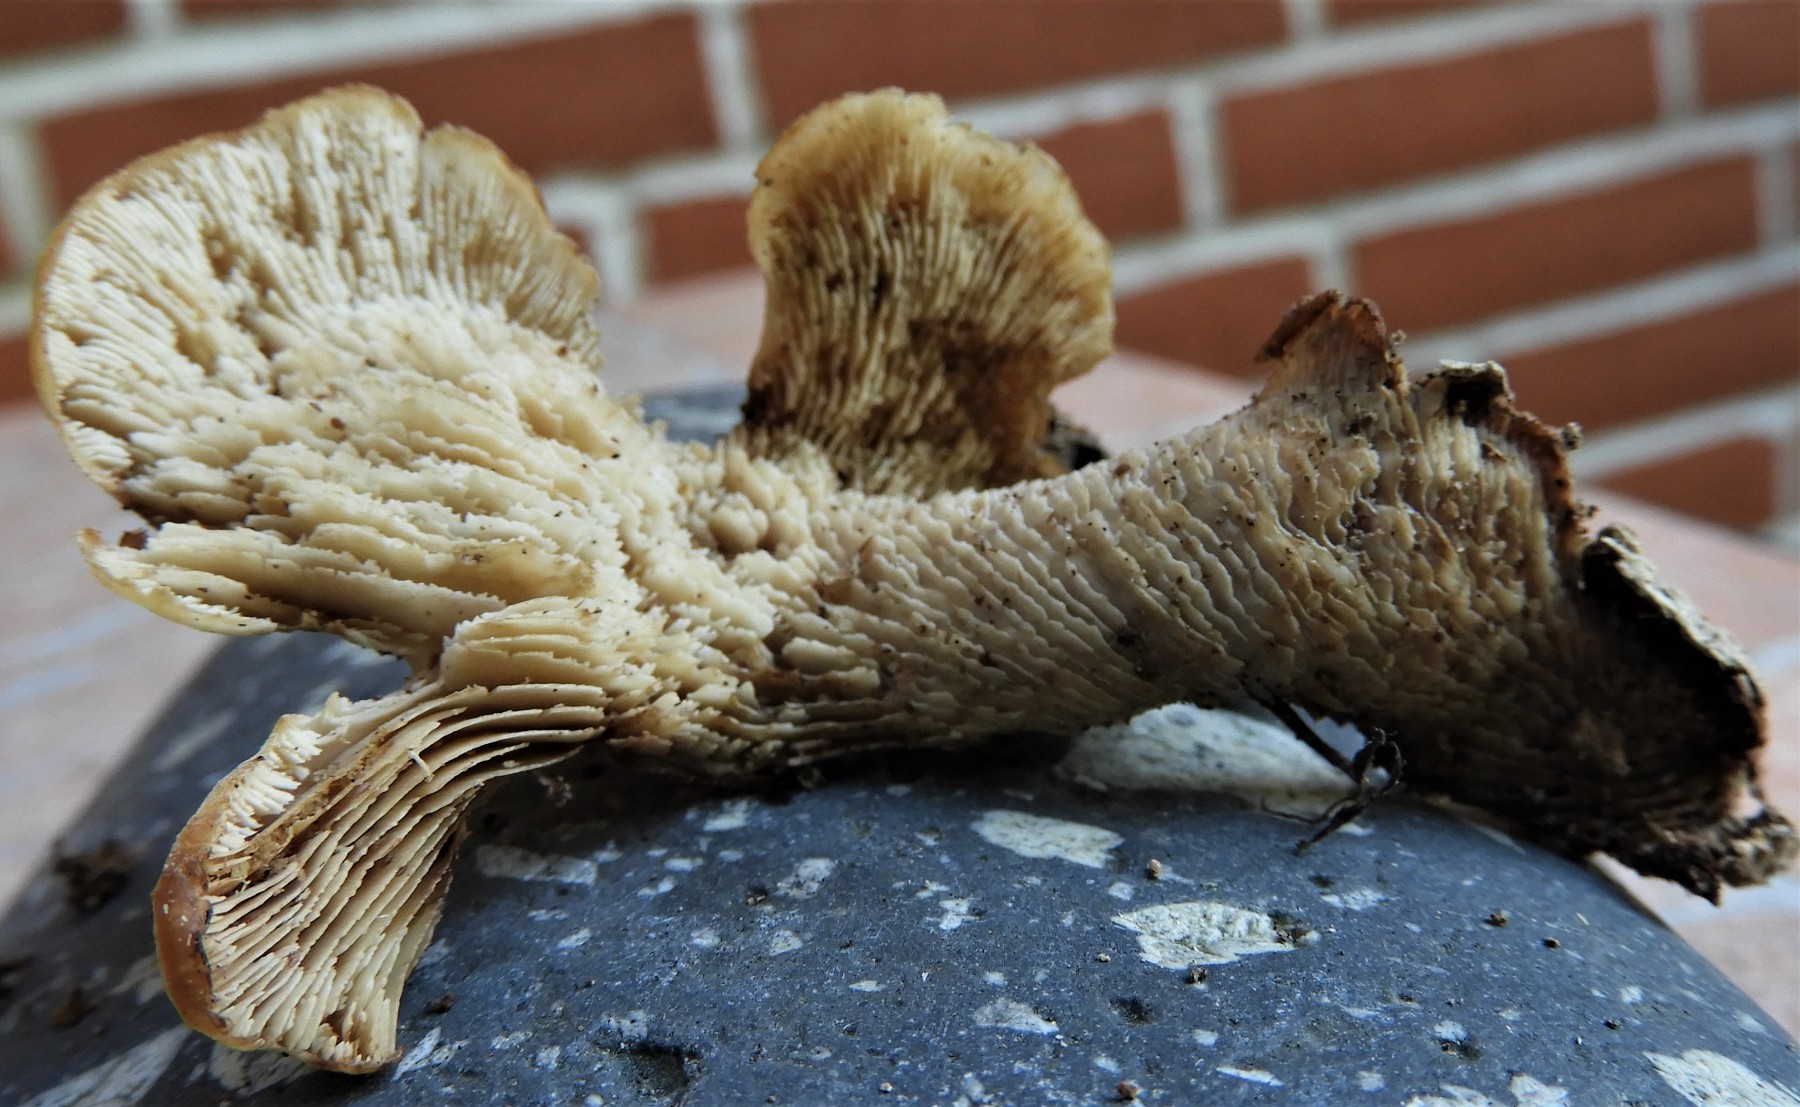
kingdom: Fungi
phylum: Basidiomycota
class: Agaricomycetes
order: Russulales
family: Auriscalpiaceae
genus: Lentinellus
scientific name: Lentinellus ursinus
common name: børstehåret savbladhat
